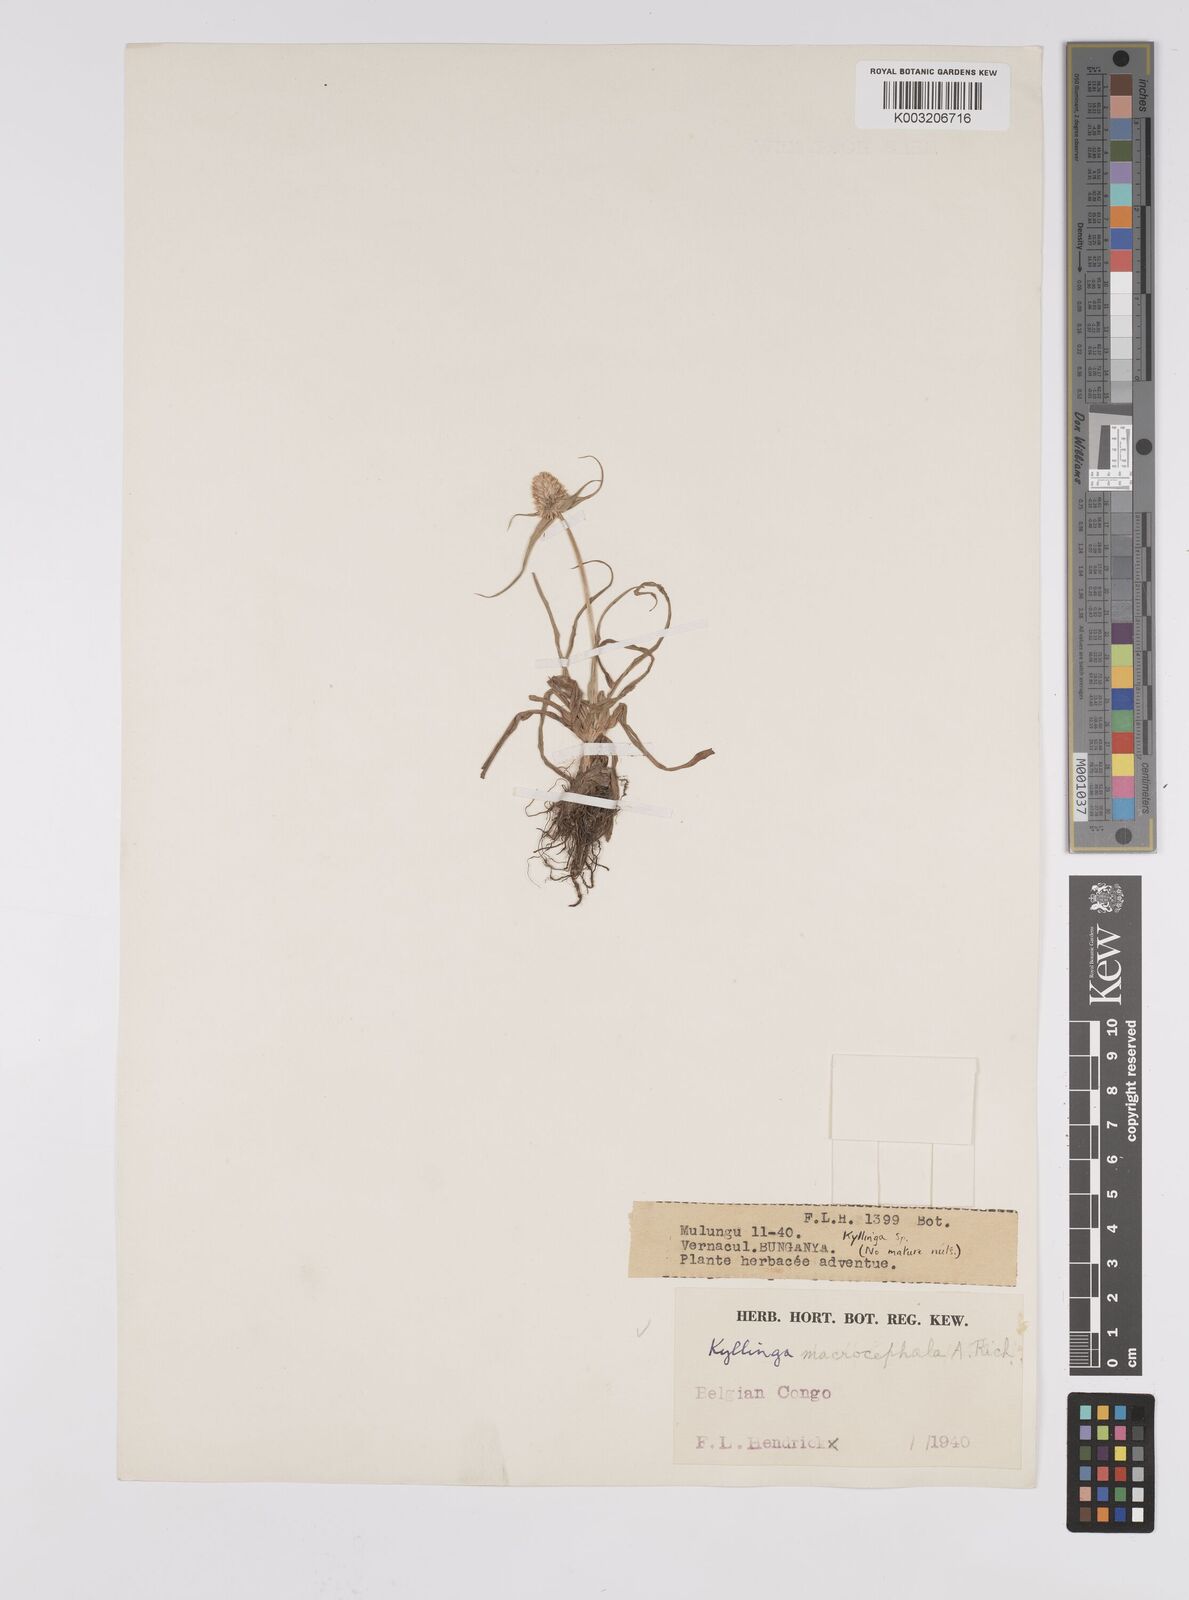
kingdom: Plantae
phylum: Tracheophyta
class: Liliopsida
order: Poales
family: Cyperaceae
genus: Cyperus
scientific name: Cyperus conglobatus
